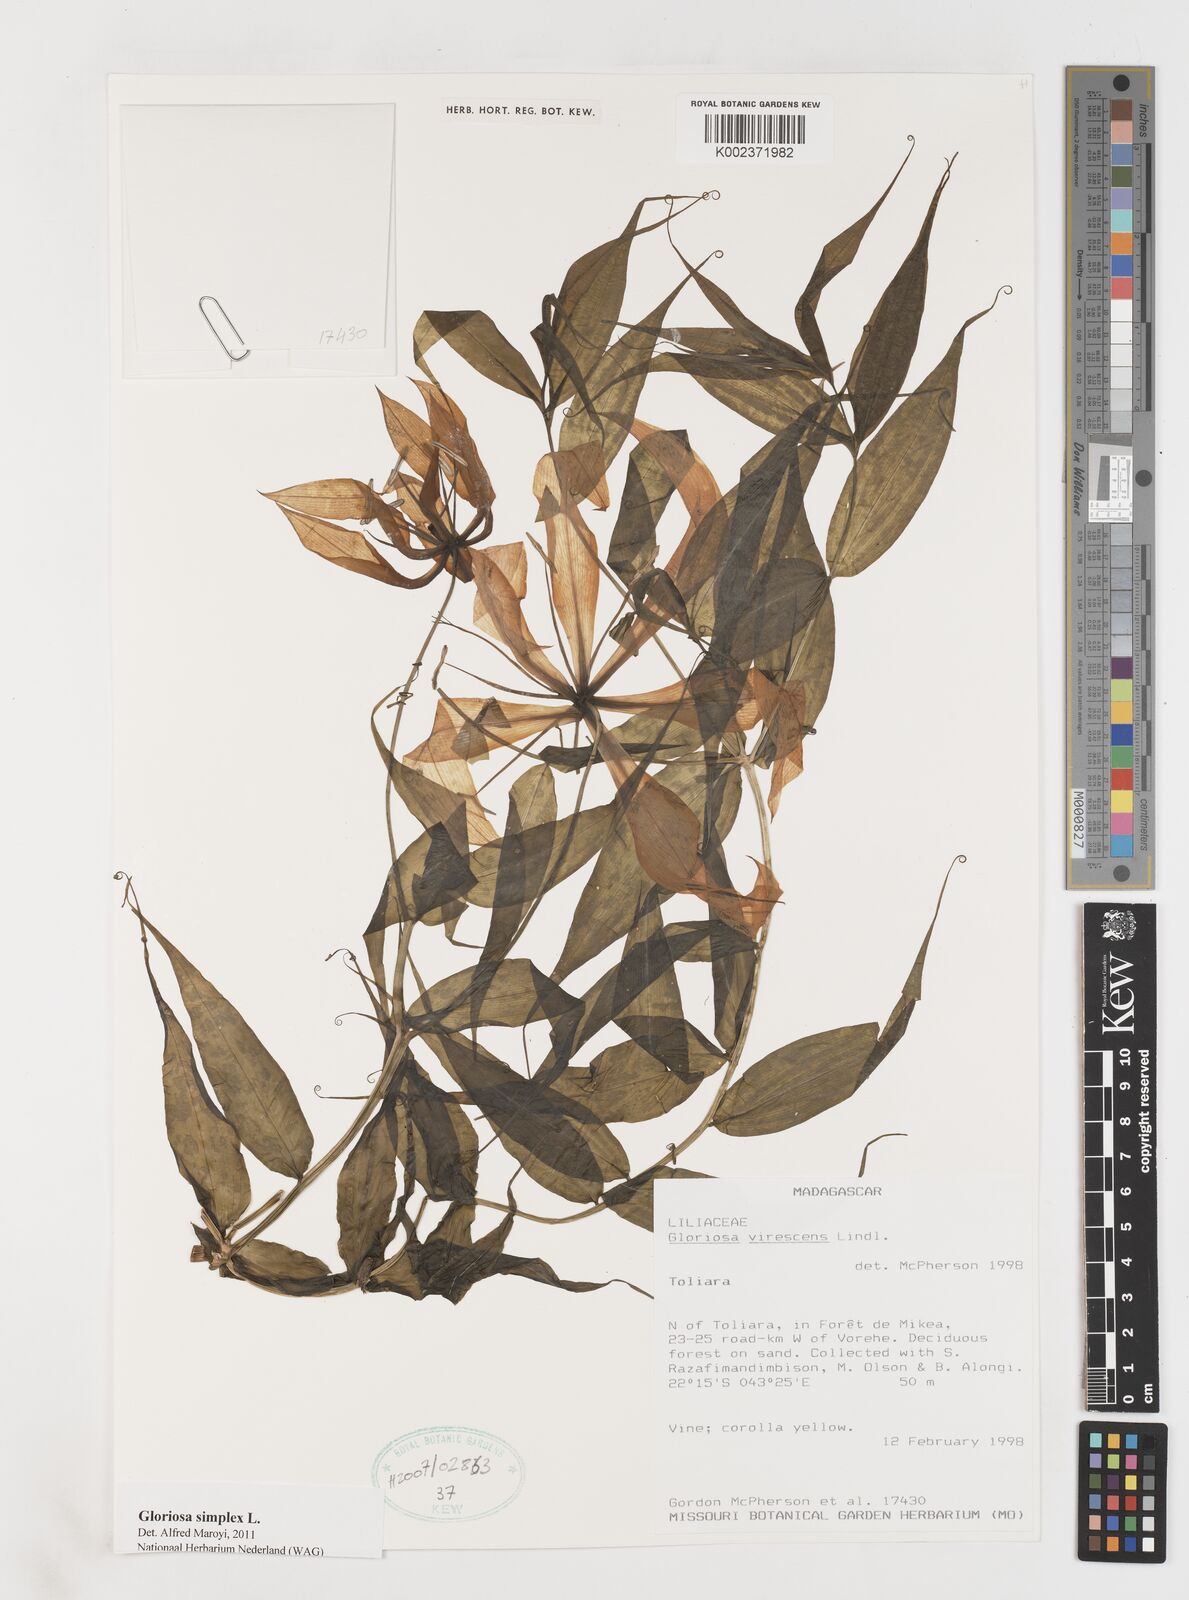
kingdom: Plantae
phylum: Tracheophyta
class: Liliopsida
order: Liliales
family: Colchicaceae
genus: Gloriosa
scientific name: Gloriosa simplex
